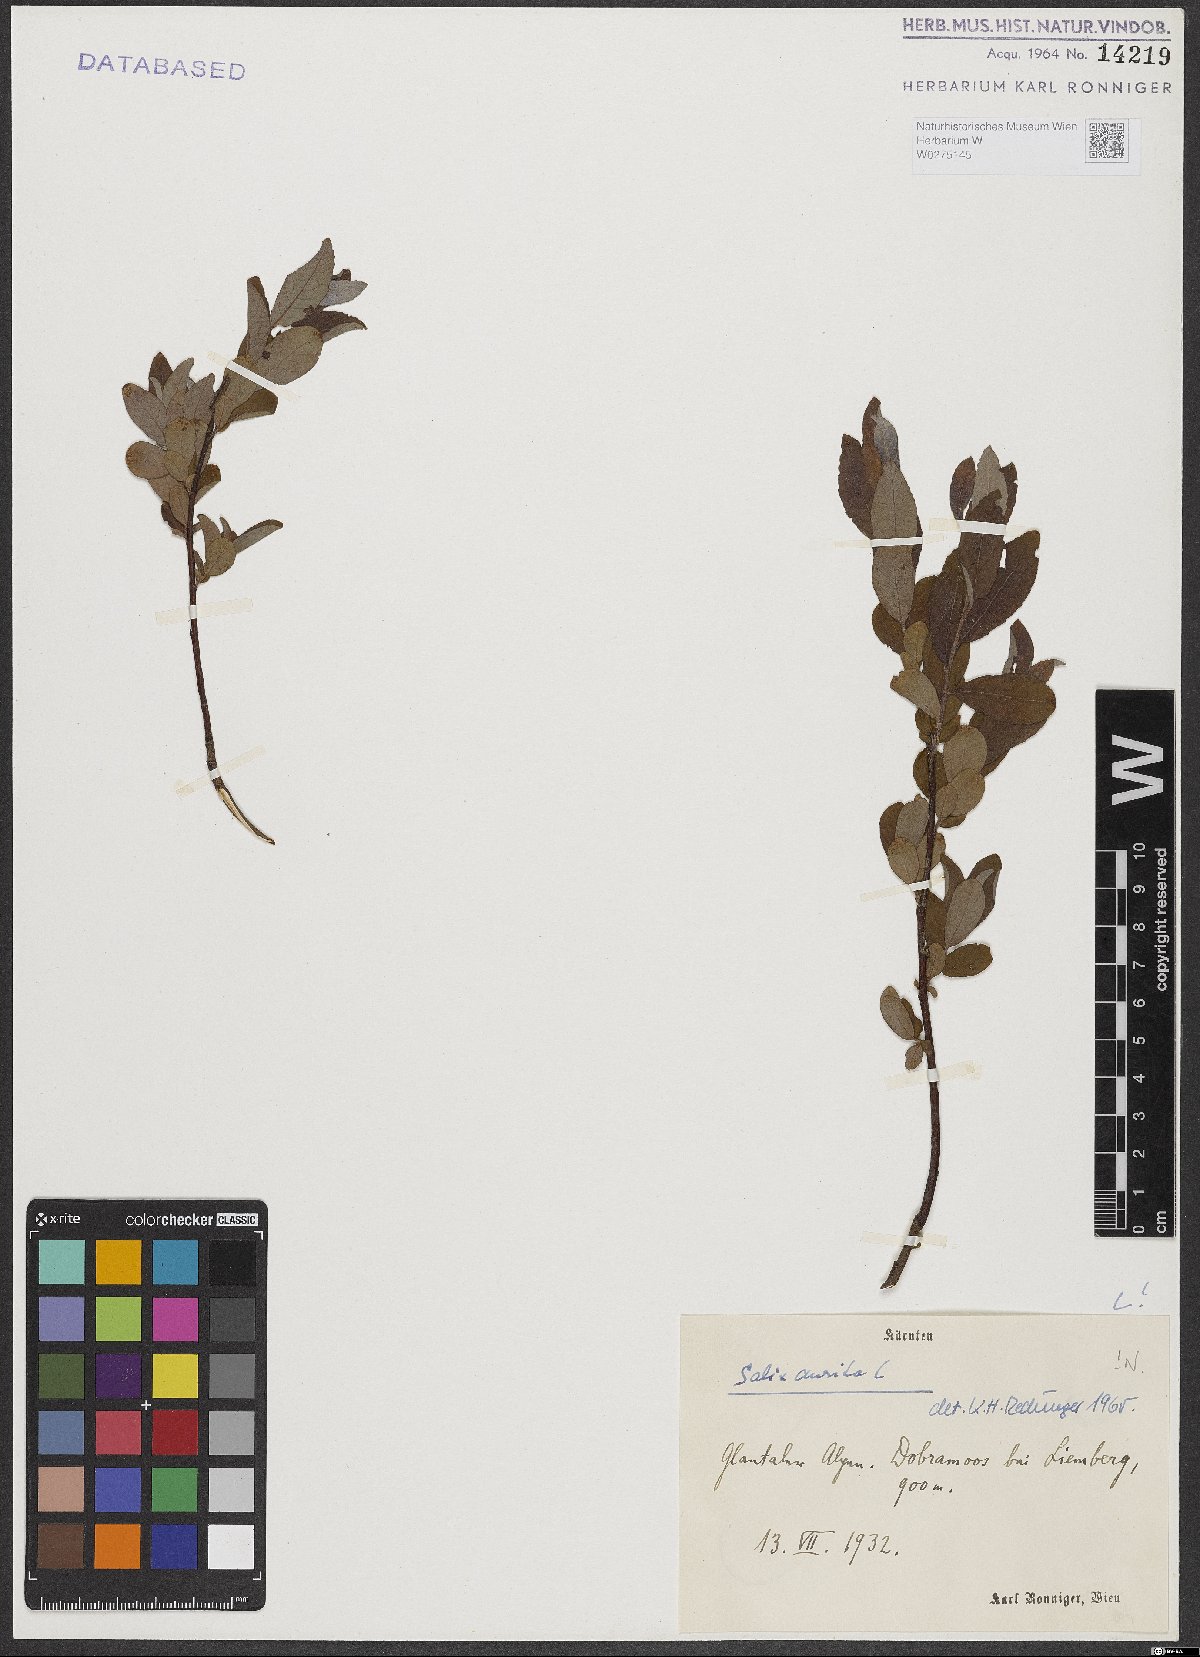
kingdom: Plantae
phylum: Tracheophyta
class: Magnoliopsida
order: Malpighiales
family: Salicaceae
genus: Salix
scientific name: Salix aurita
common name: Eared willow
